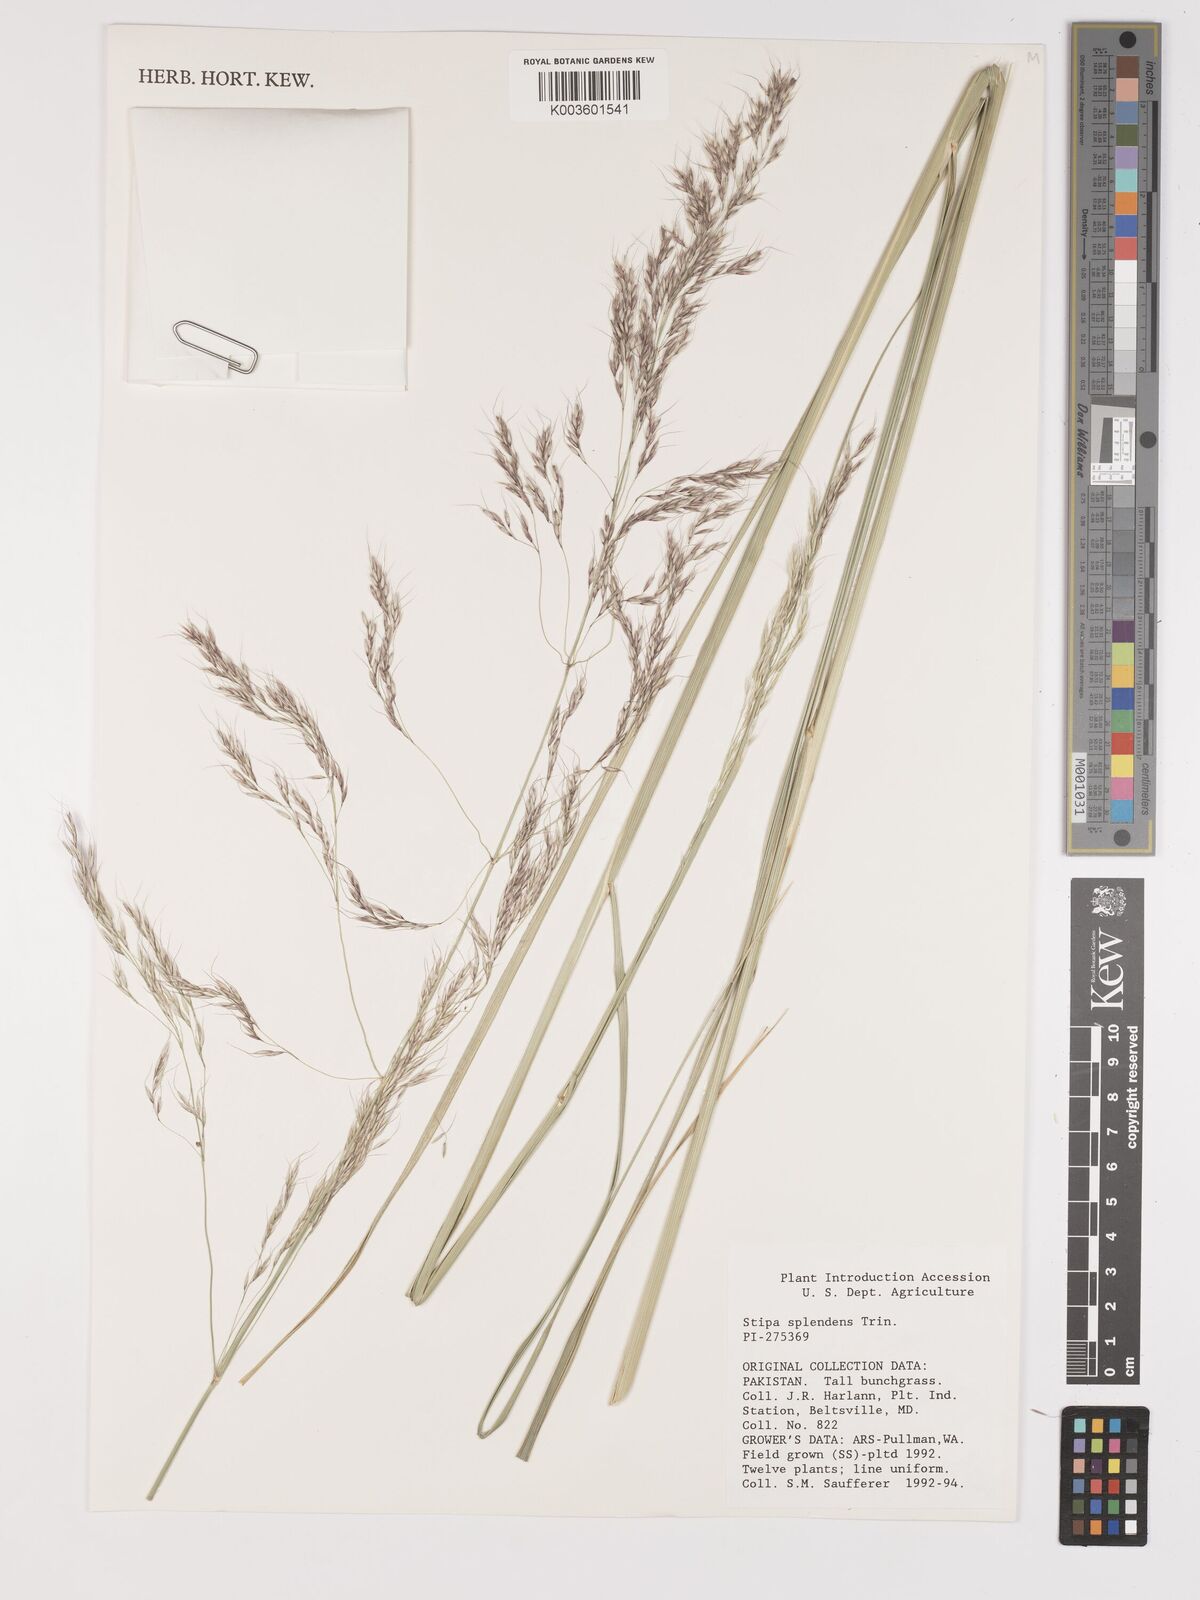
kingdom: Plantae
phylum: Tracheophyta
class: Liliopsida
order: Poales
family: Poaceae
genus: Neotrinia
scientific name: Neotrinia splendens
